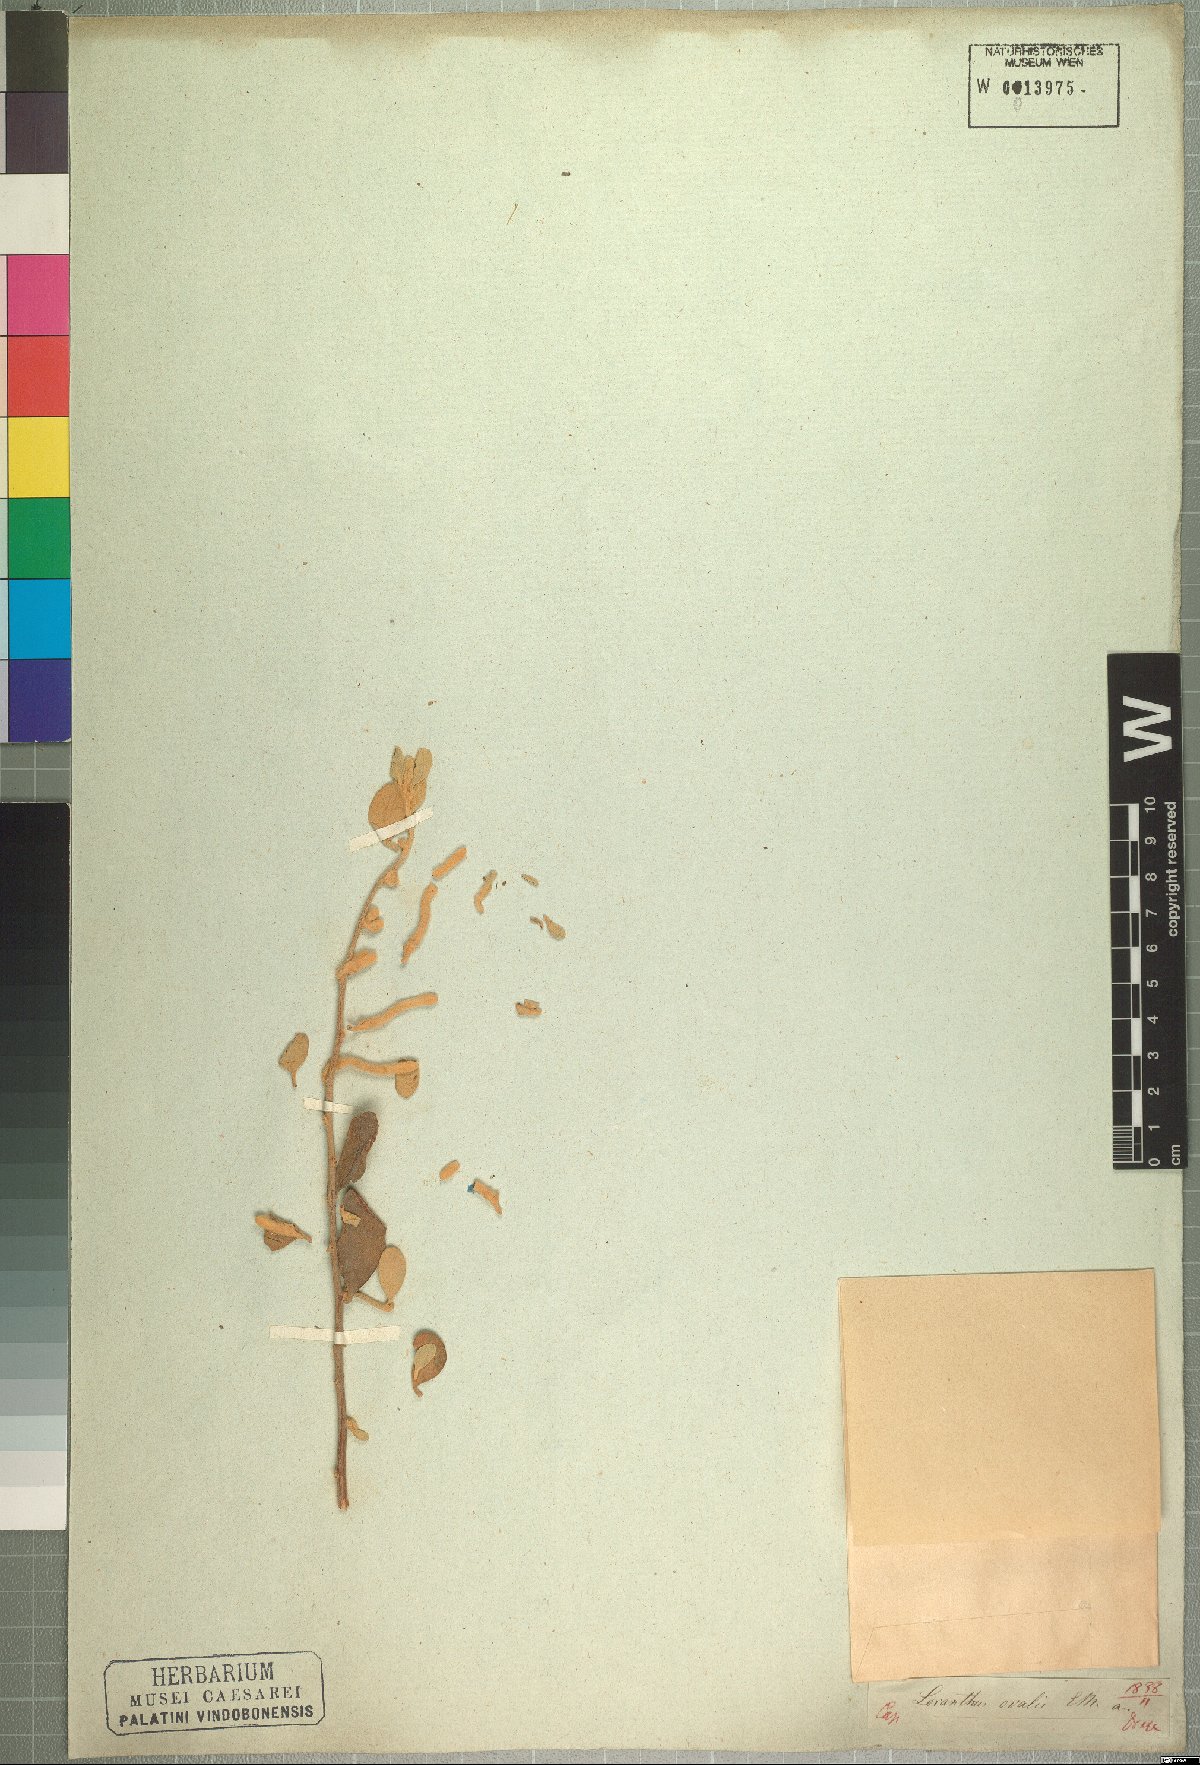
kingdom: Plantae
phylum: Tracheophyta
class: Magnoliopsida
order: Santalales
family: Loranthaceae
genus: Septulina
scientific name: Septulina ovalis
